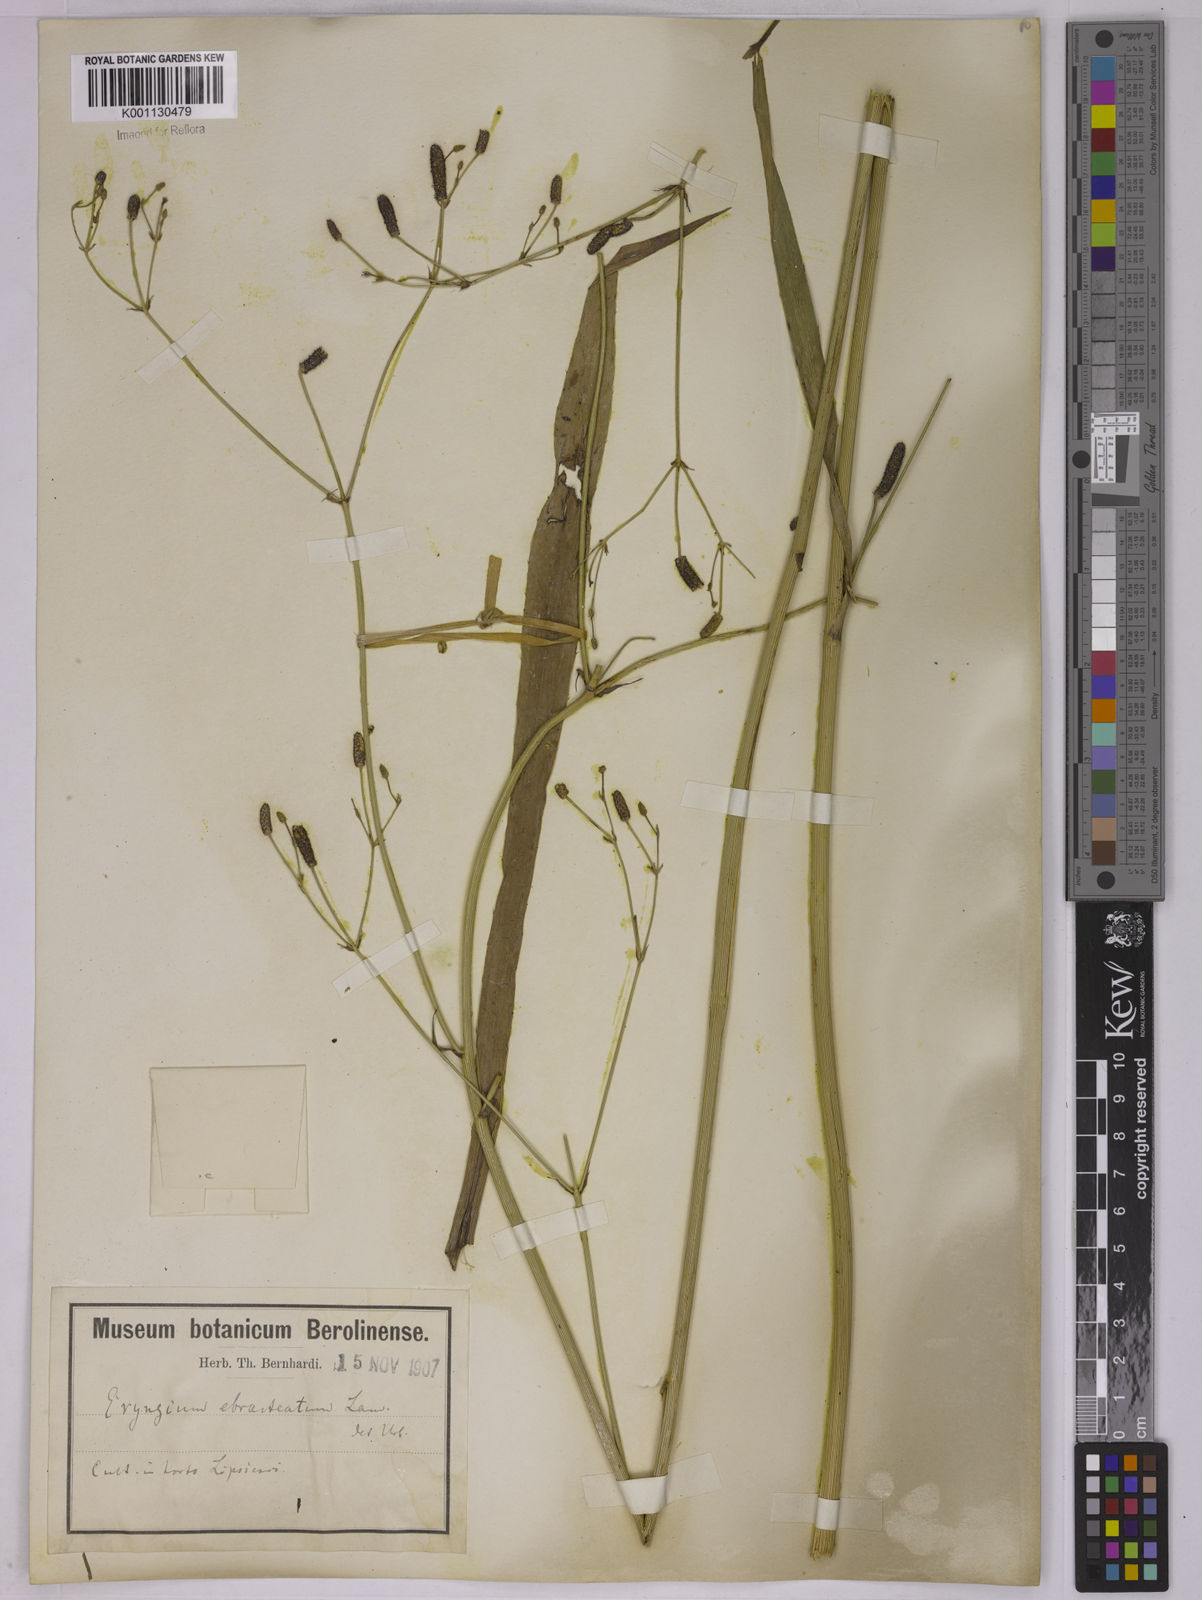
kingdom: Plantae
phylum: Tracheophyta
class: Magnoliopsida
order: Apiales
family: Apiaceae
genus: Eryngium
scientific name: Eryngium ebracteatum
